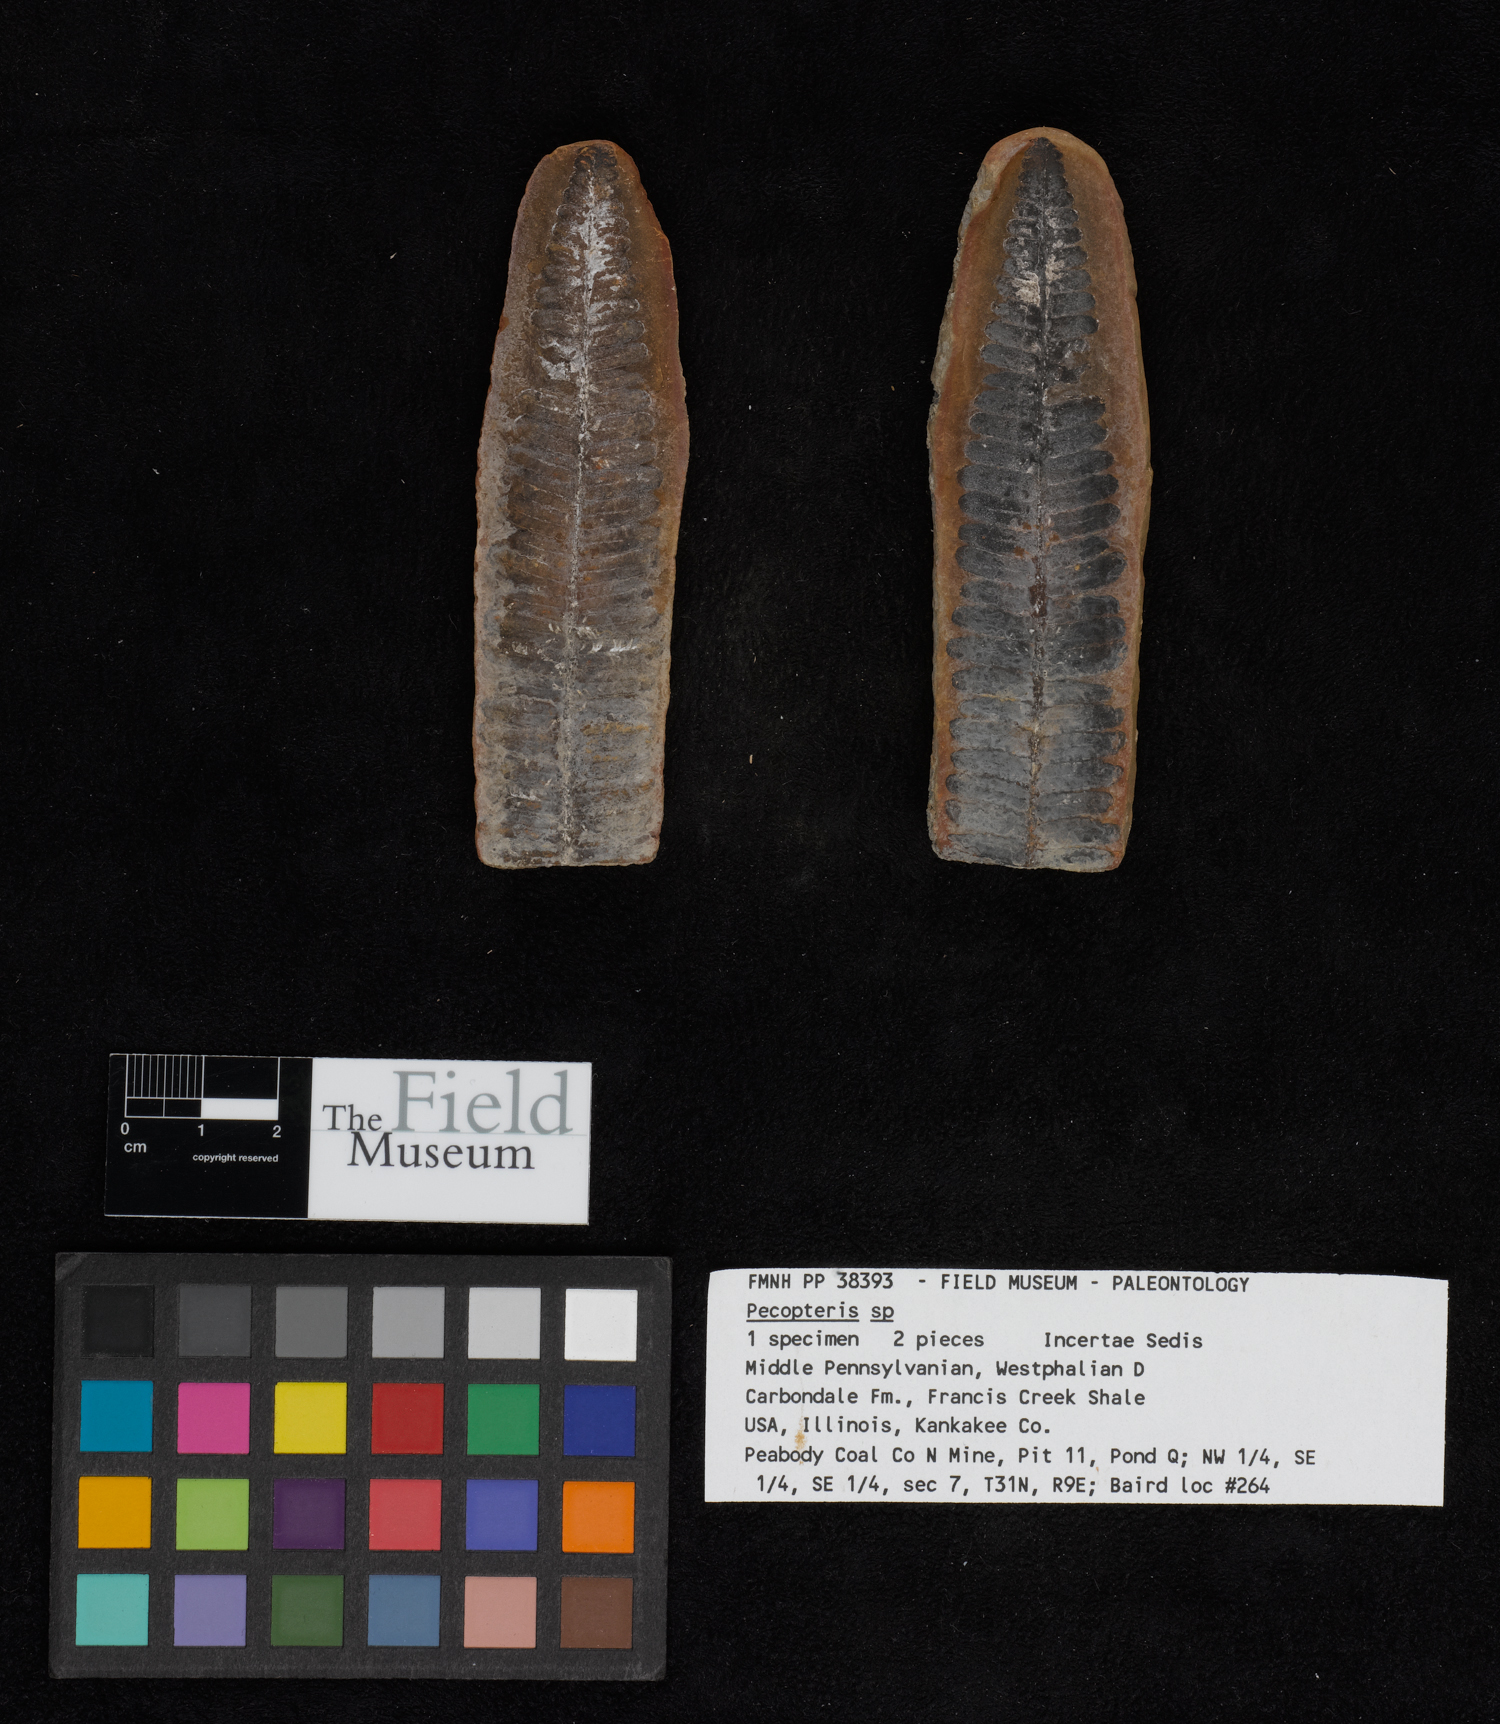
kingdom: Plantae
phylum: Tracheophyta
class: Polypodiopsida
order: Marattiales
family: Asterothecaceae
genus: Pecopteris
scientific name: Pecopteris
